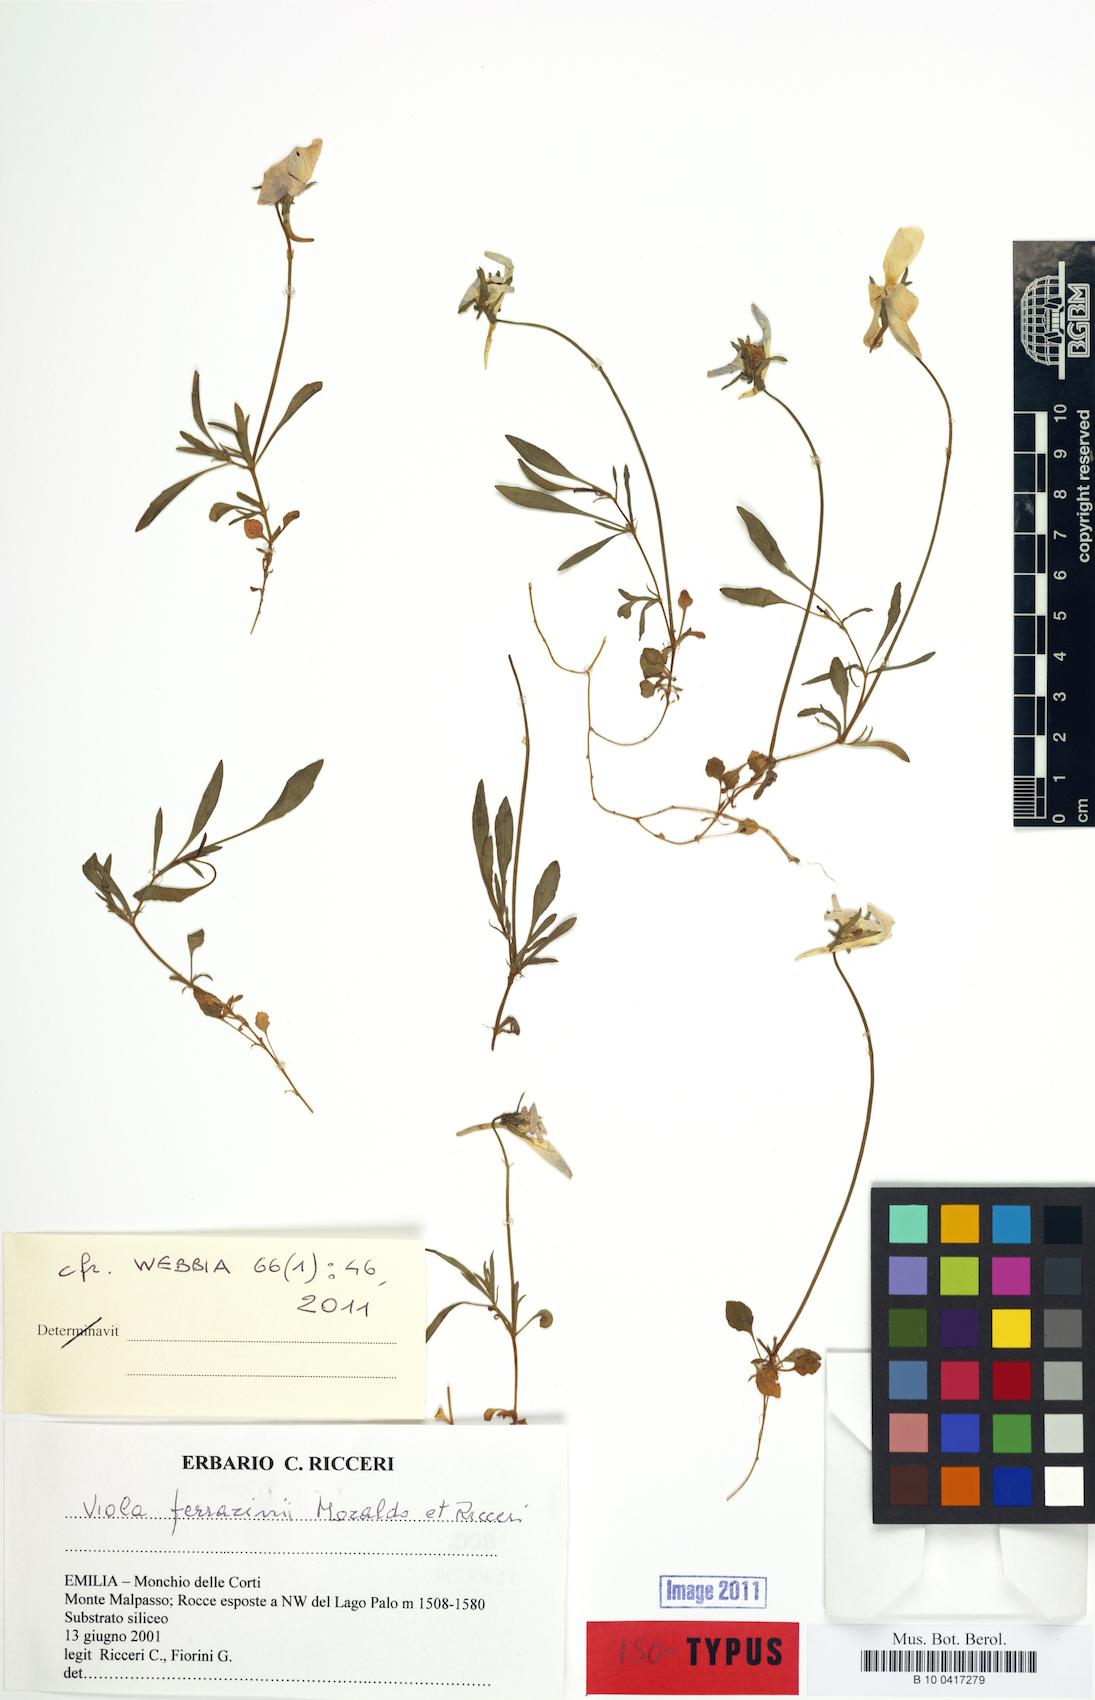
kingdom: Plantae
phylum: Tracheophyta
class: Magnoliopsida
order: Malpighiales
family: Violaceae
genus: Viola
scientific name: Viola ferrarinii
